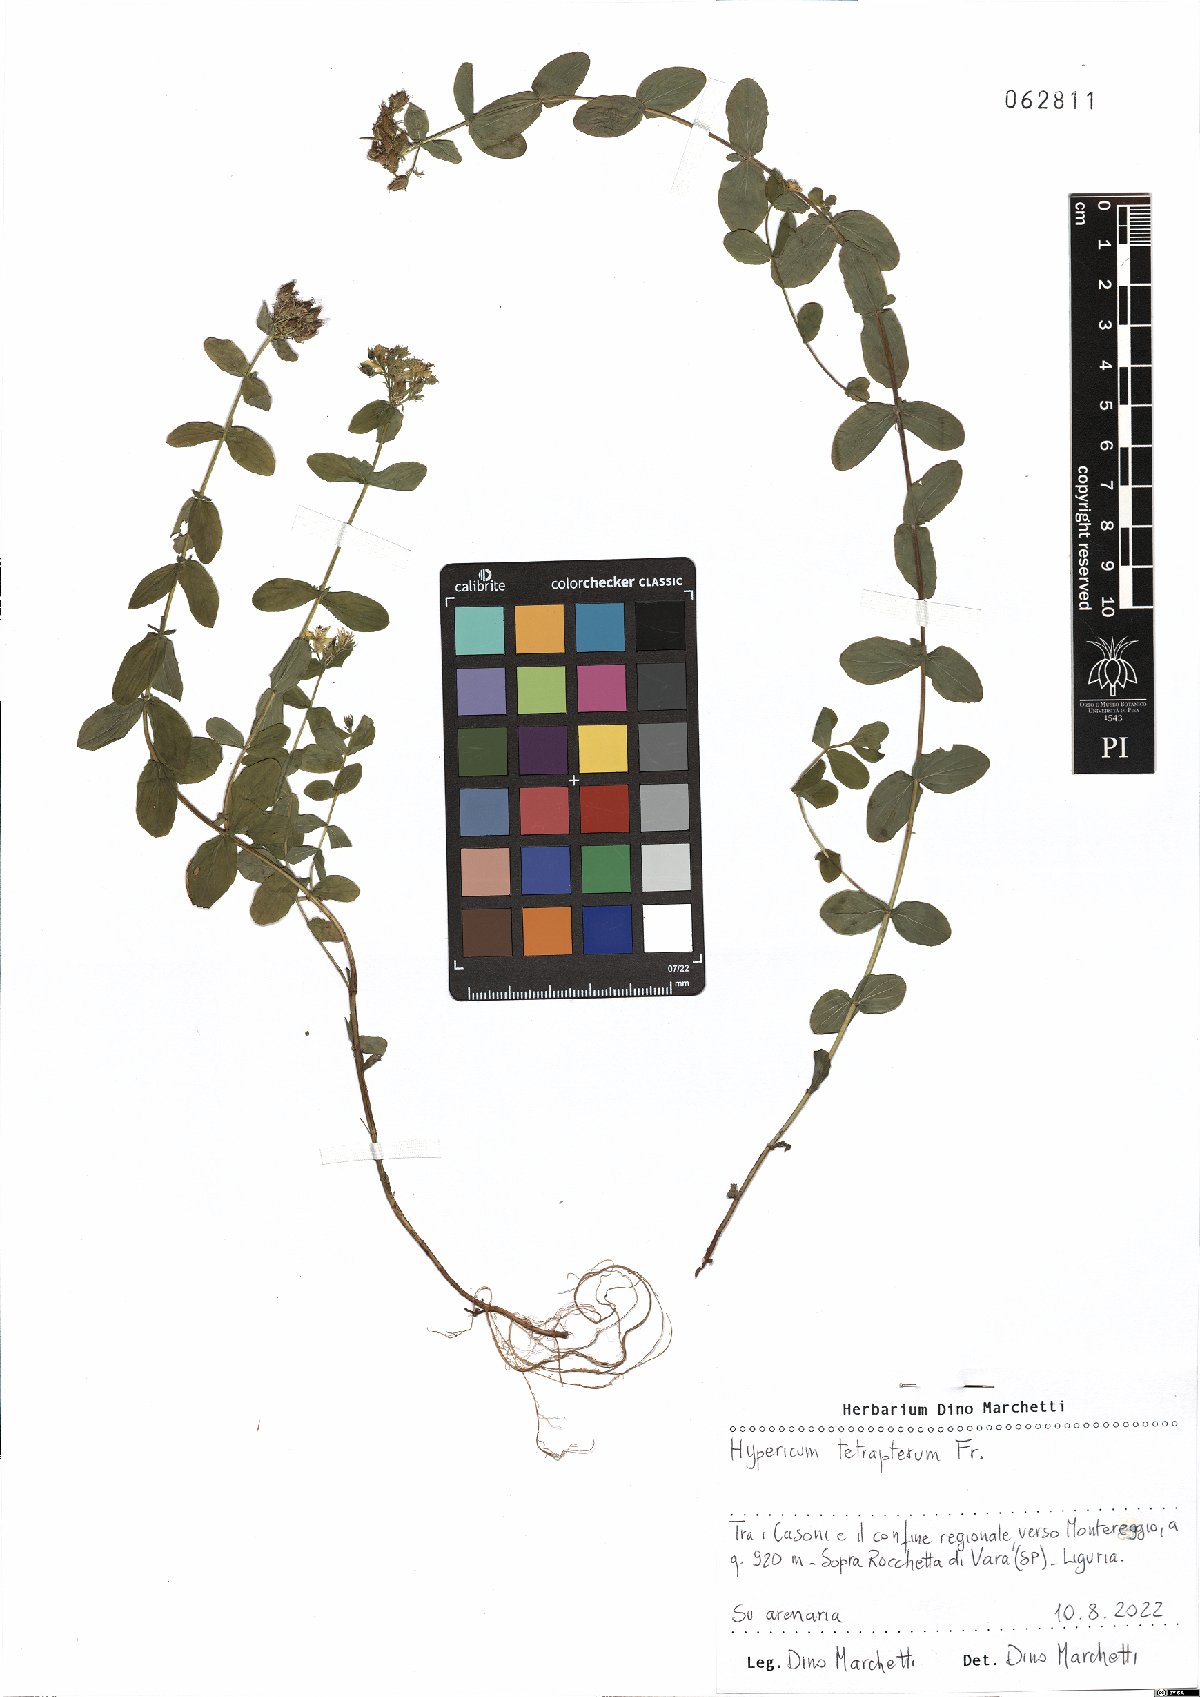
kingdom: Plantae
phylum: Tracheophyta
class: Magnoliopsida
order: Malpighiales
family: Hypericaceae
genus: Hypericum
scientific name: Hypericum tetrapterum
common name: Square-stalked st. john's-wort
